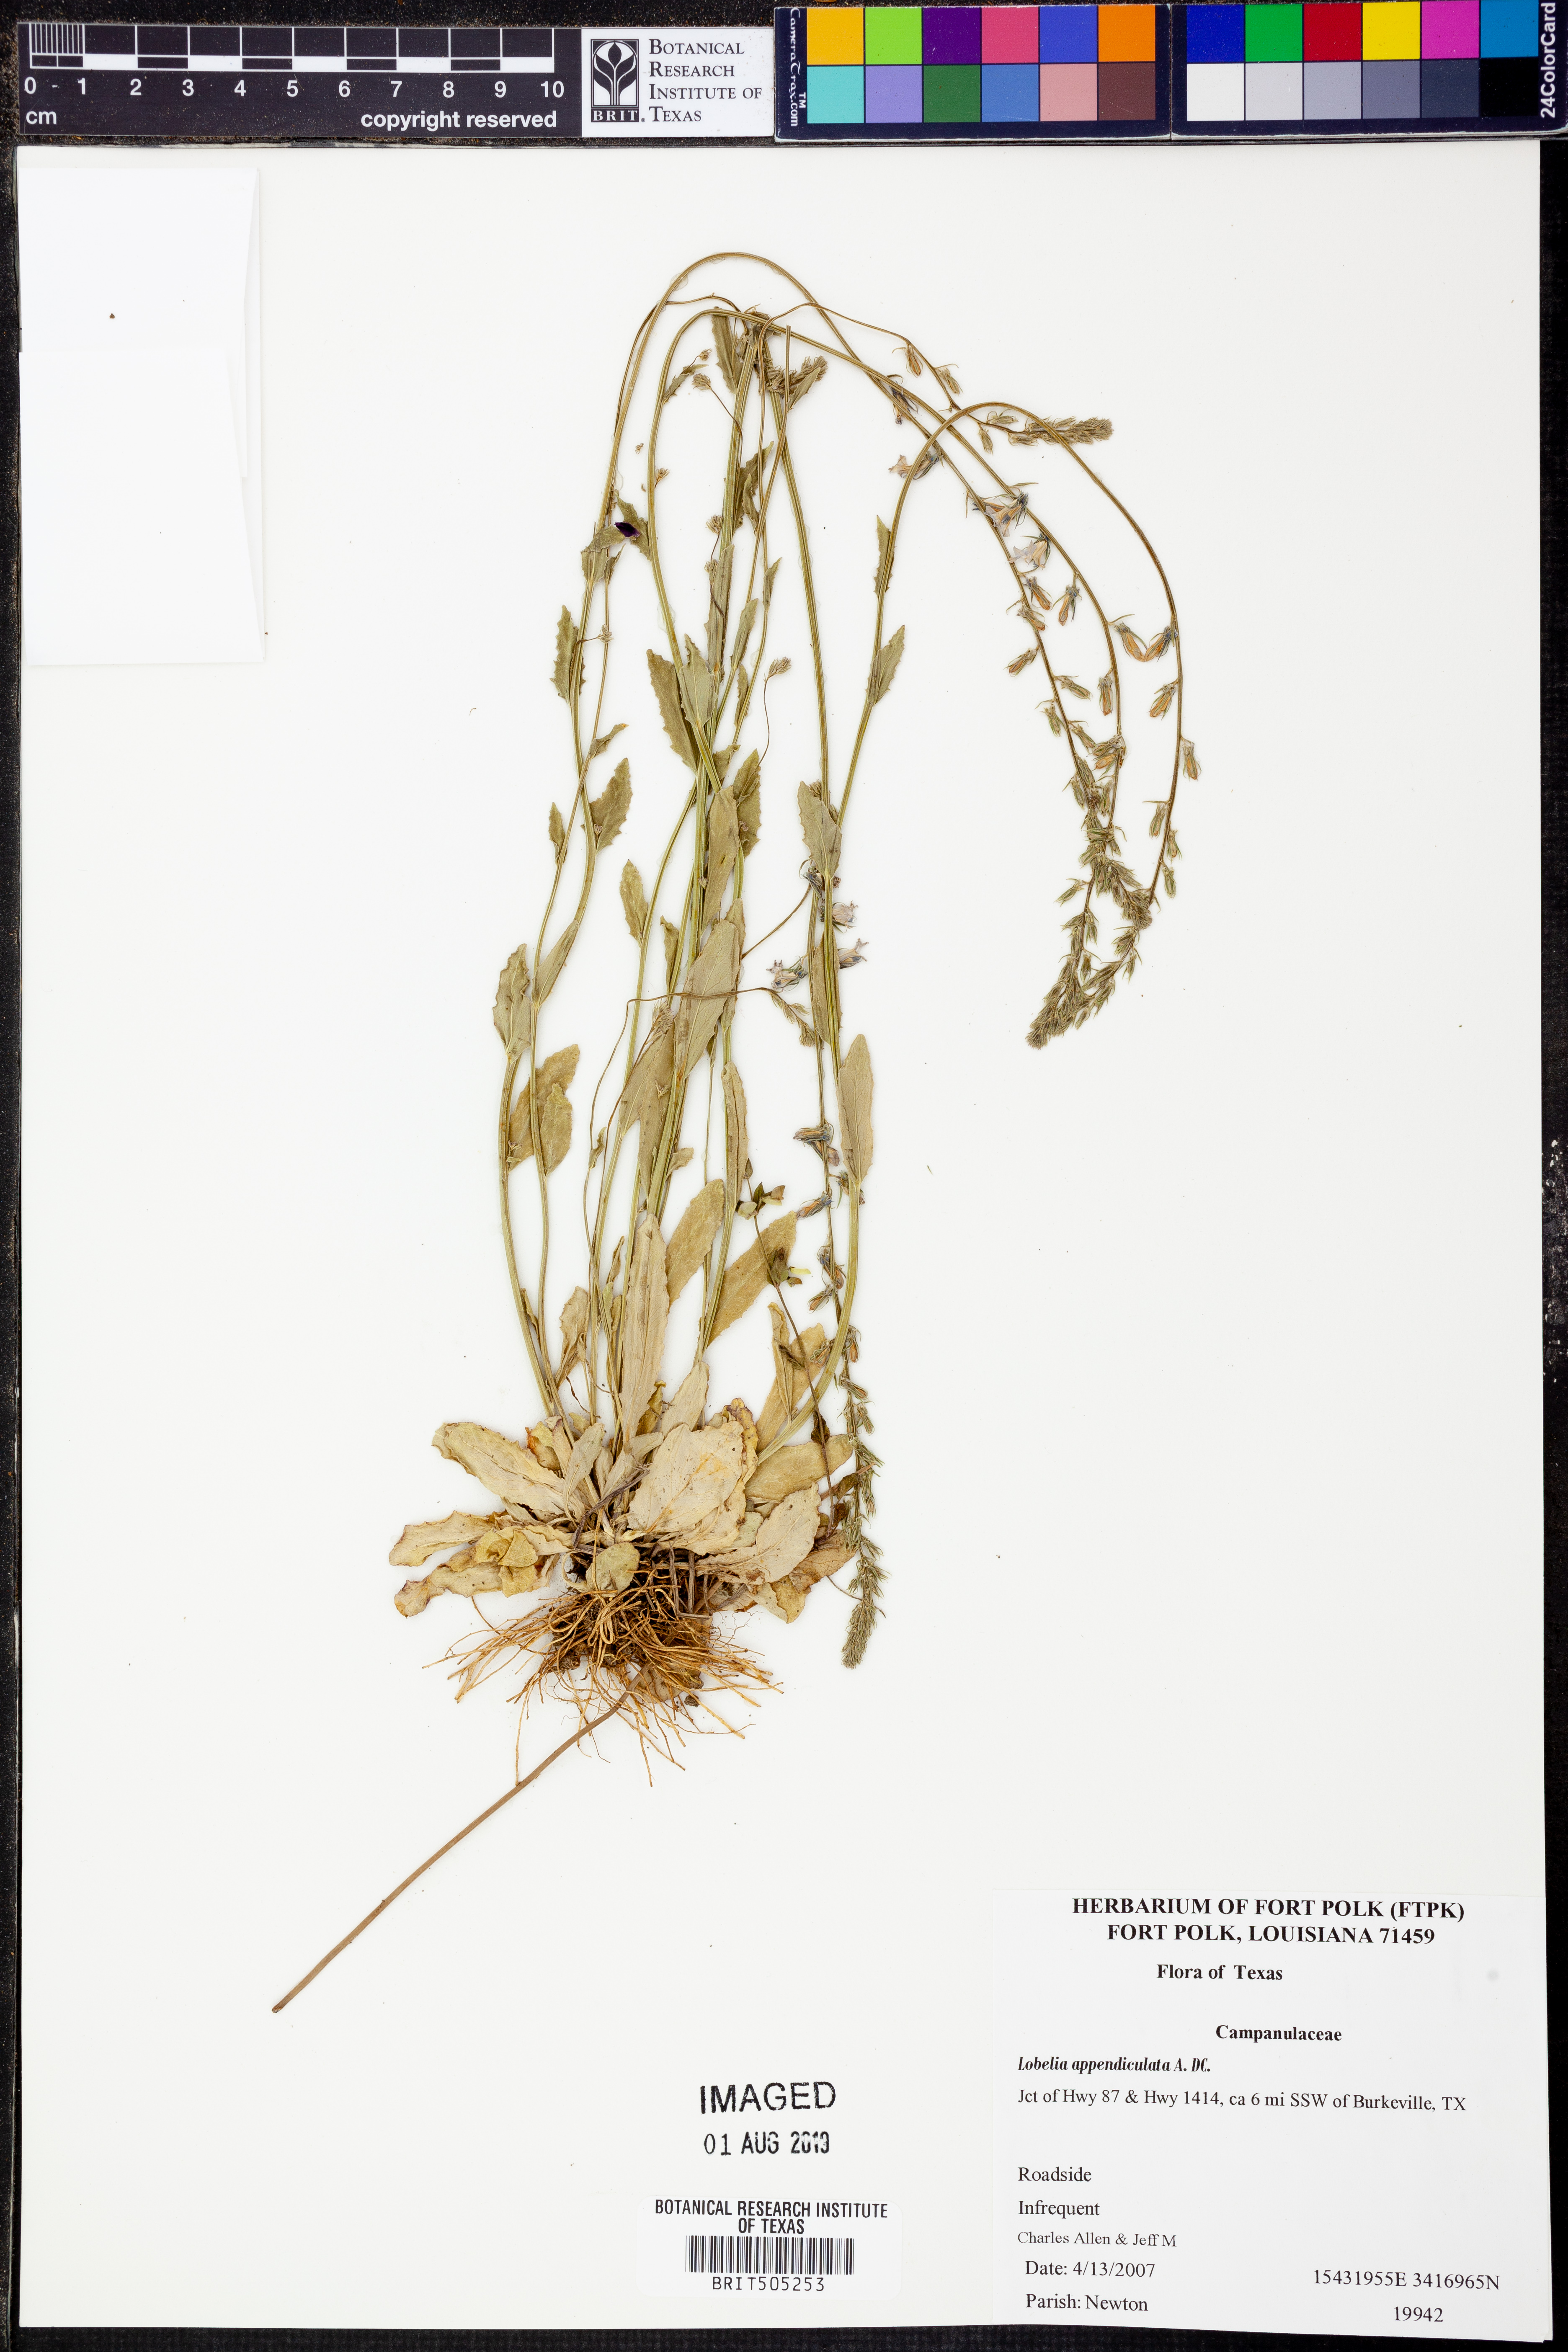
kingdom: Plantae
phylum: Tracheophyta
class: Magnoliopsida
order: Asterales
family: Campanulaceae
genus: Lobelia
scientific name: Lobelia appendiculata
